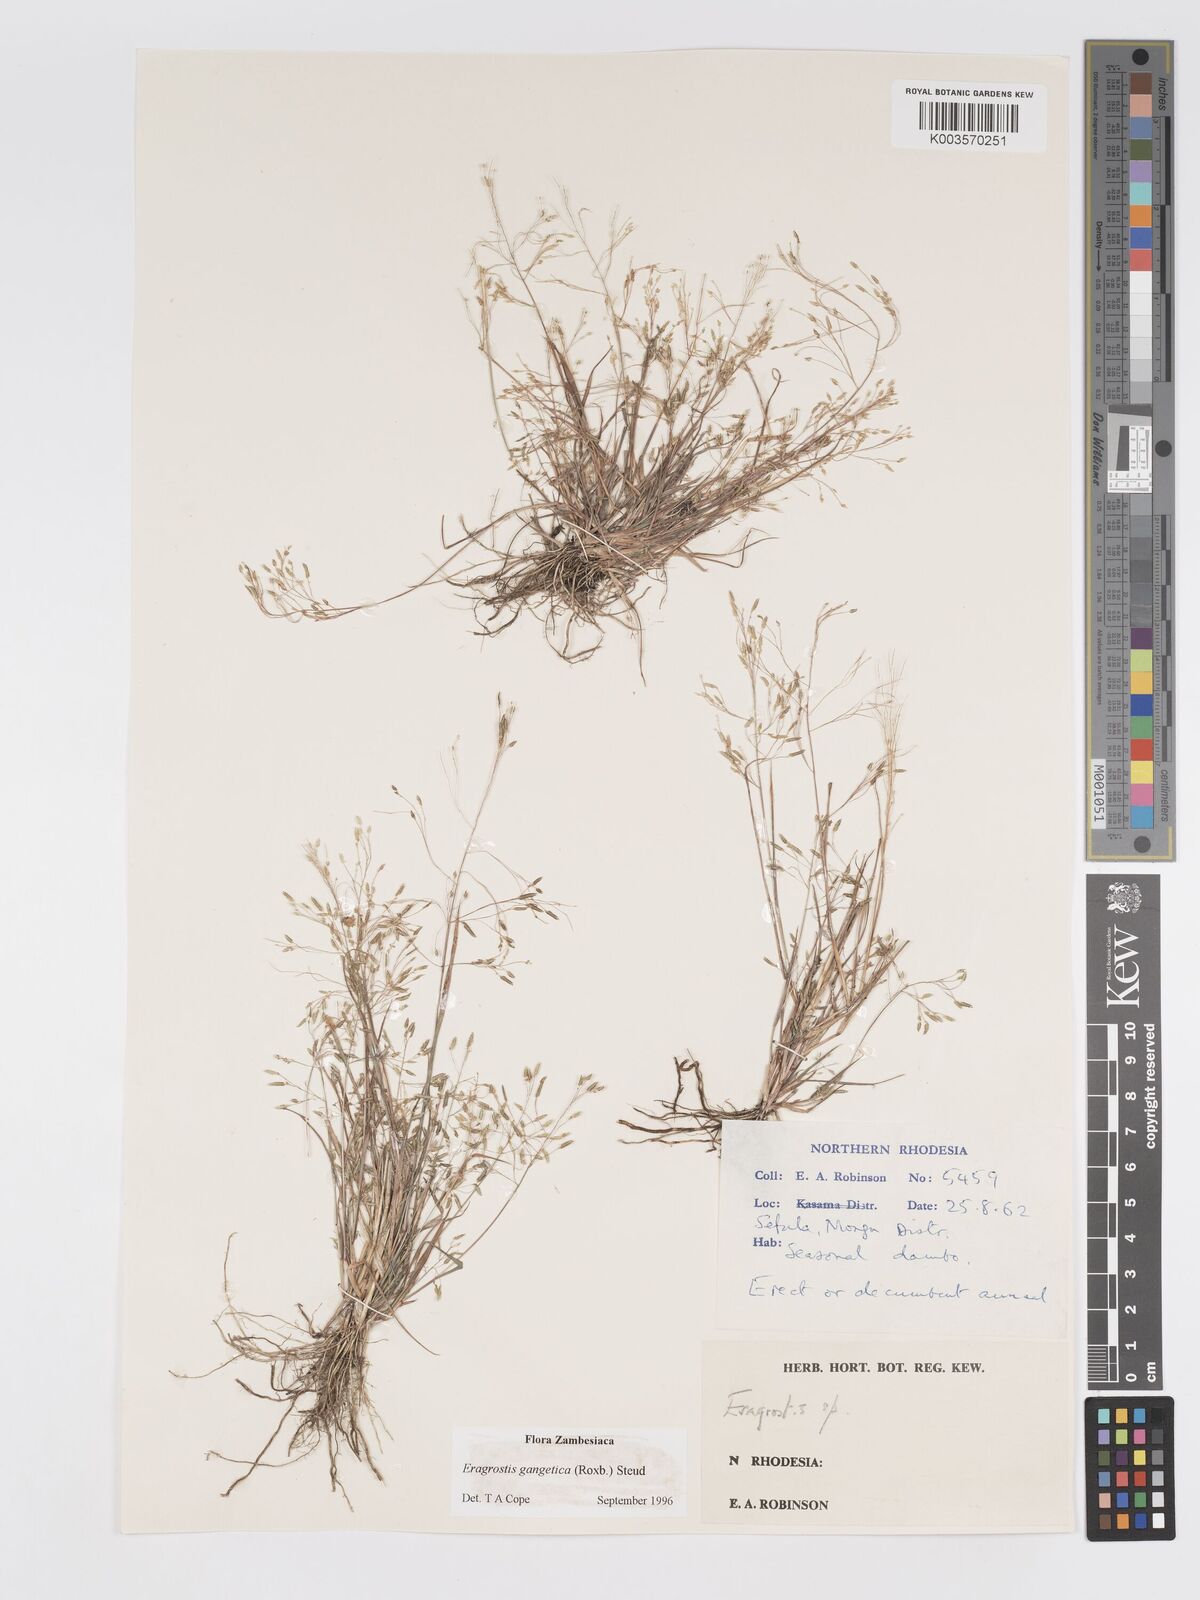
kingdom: Plantae
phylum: Tracheophyta
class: Liliopsida
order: Poales
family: Poaceae
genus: Eragrostis
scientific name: Eragrostis gangetica
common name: Slimflower lovegrass
